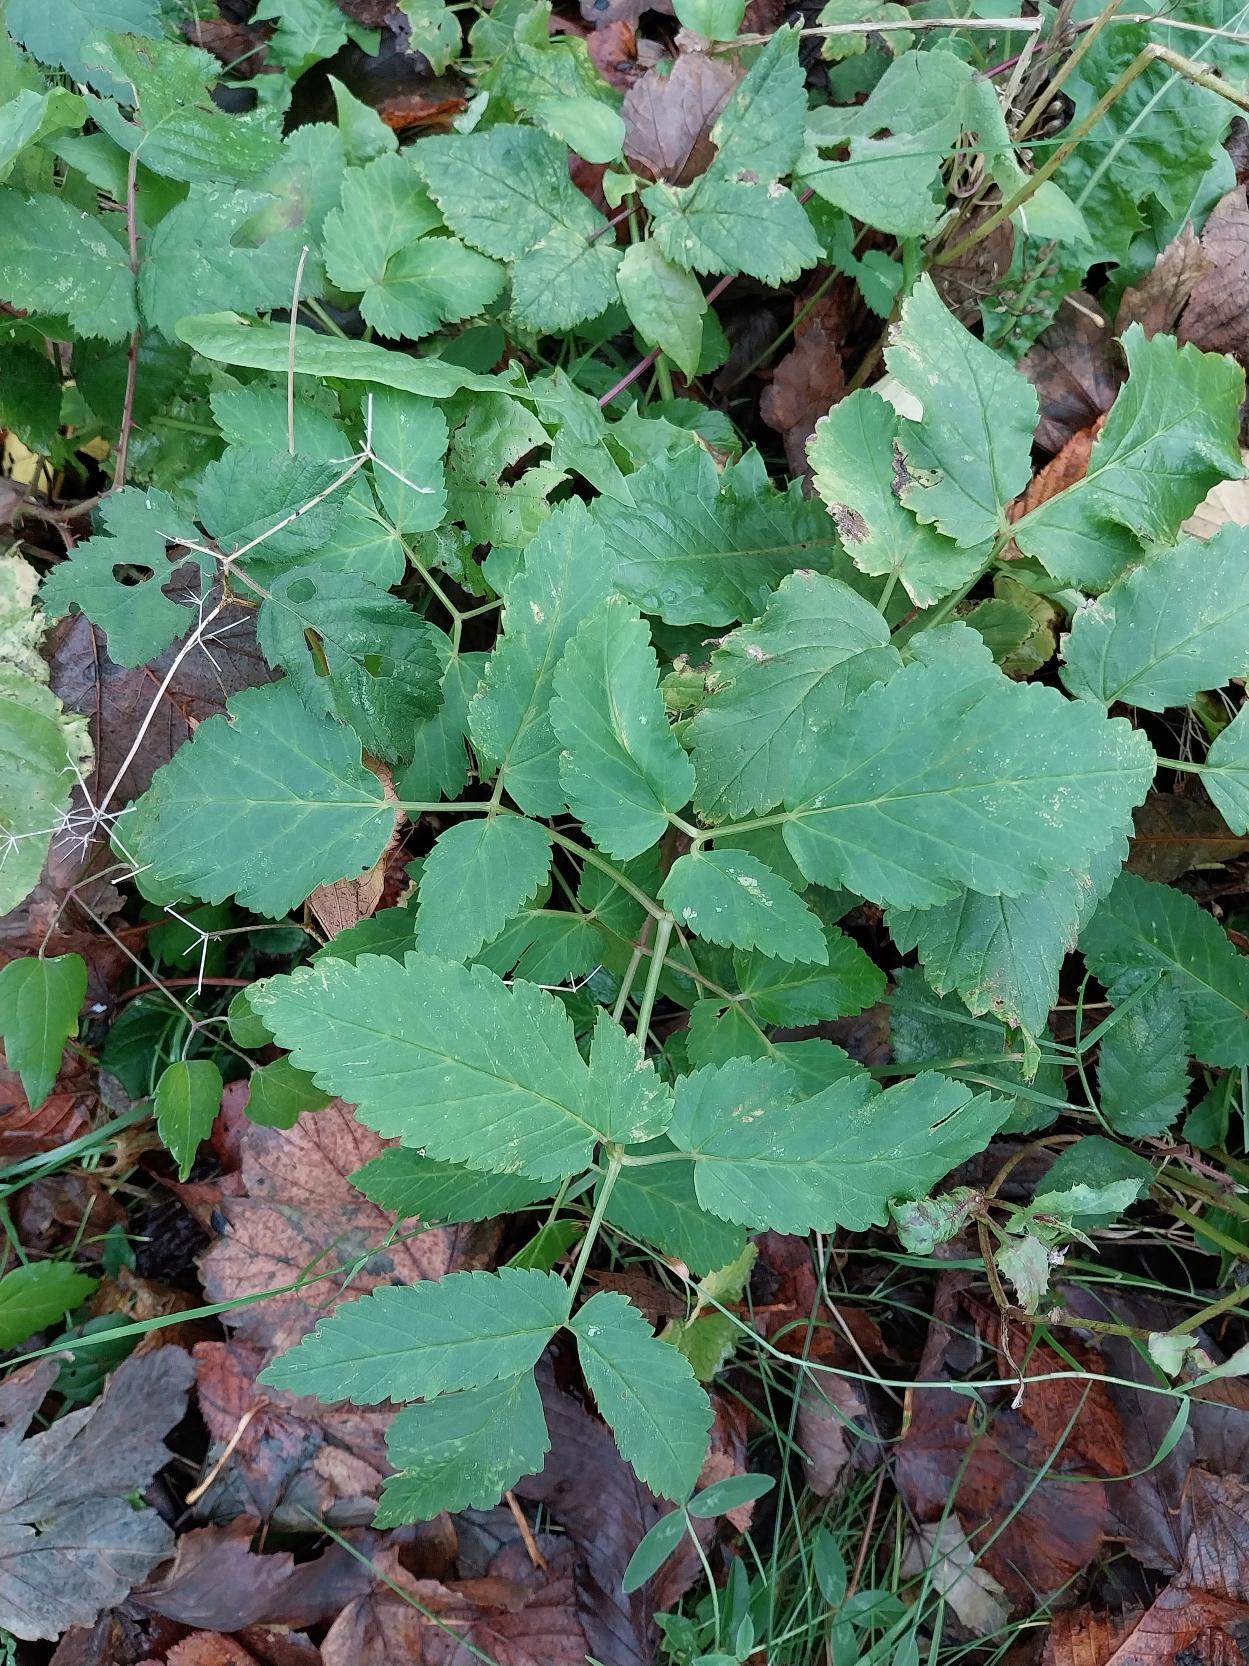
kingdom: Plantae
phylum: Tracheophyta
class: Magnoliopsida
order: Apiales
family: Apiaceae
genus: Aegopodium
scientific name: Aegopodium podagraria
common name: Skvalderkål
